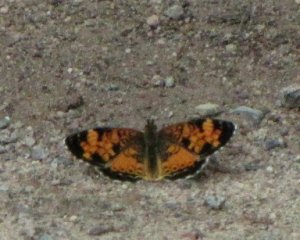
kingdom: Animalia
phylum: Arthropoda
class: Insecta
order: Lepidoptera
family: Nymphalidae
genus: Phyciodes
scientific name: Phyciodes tharos
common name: Northern Crescent
